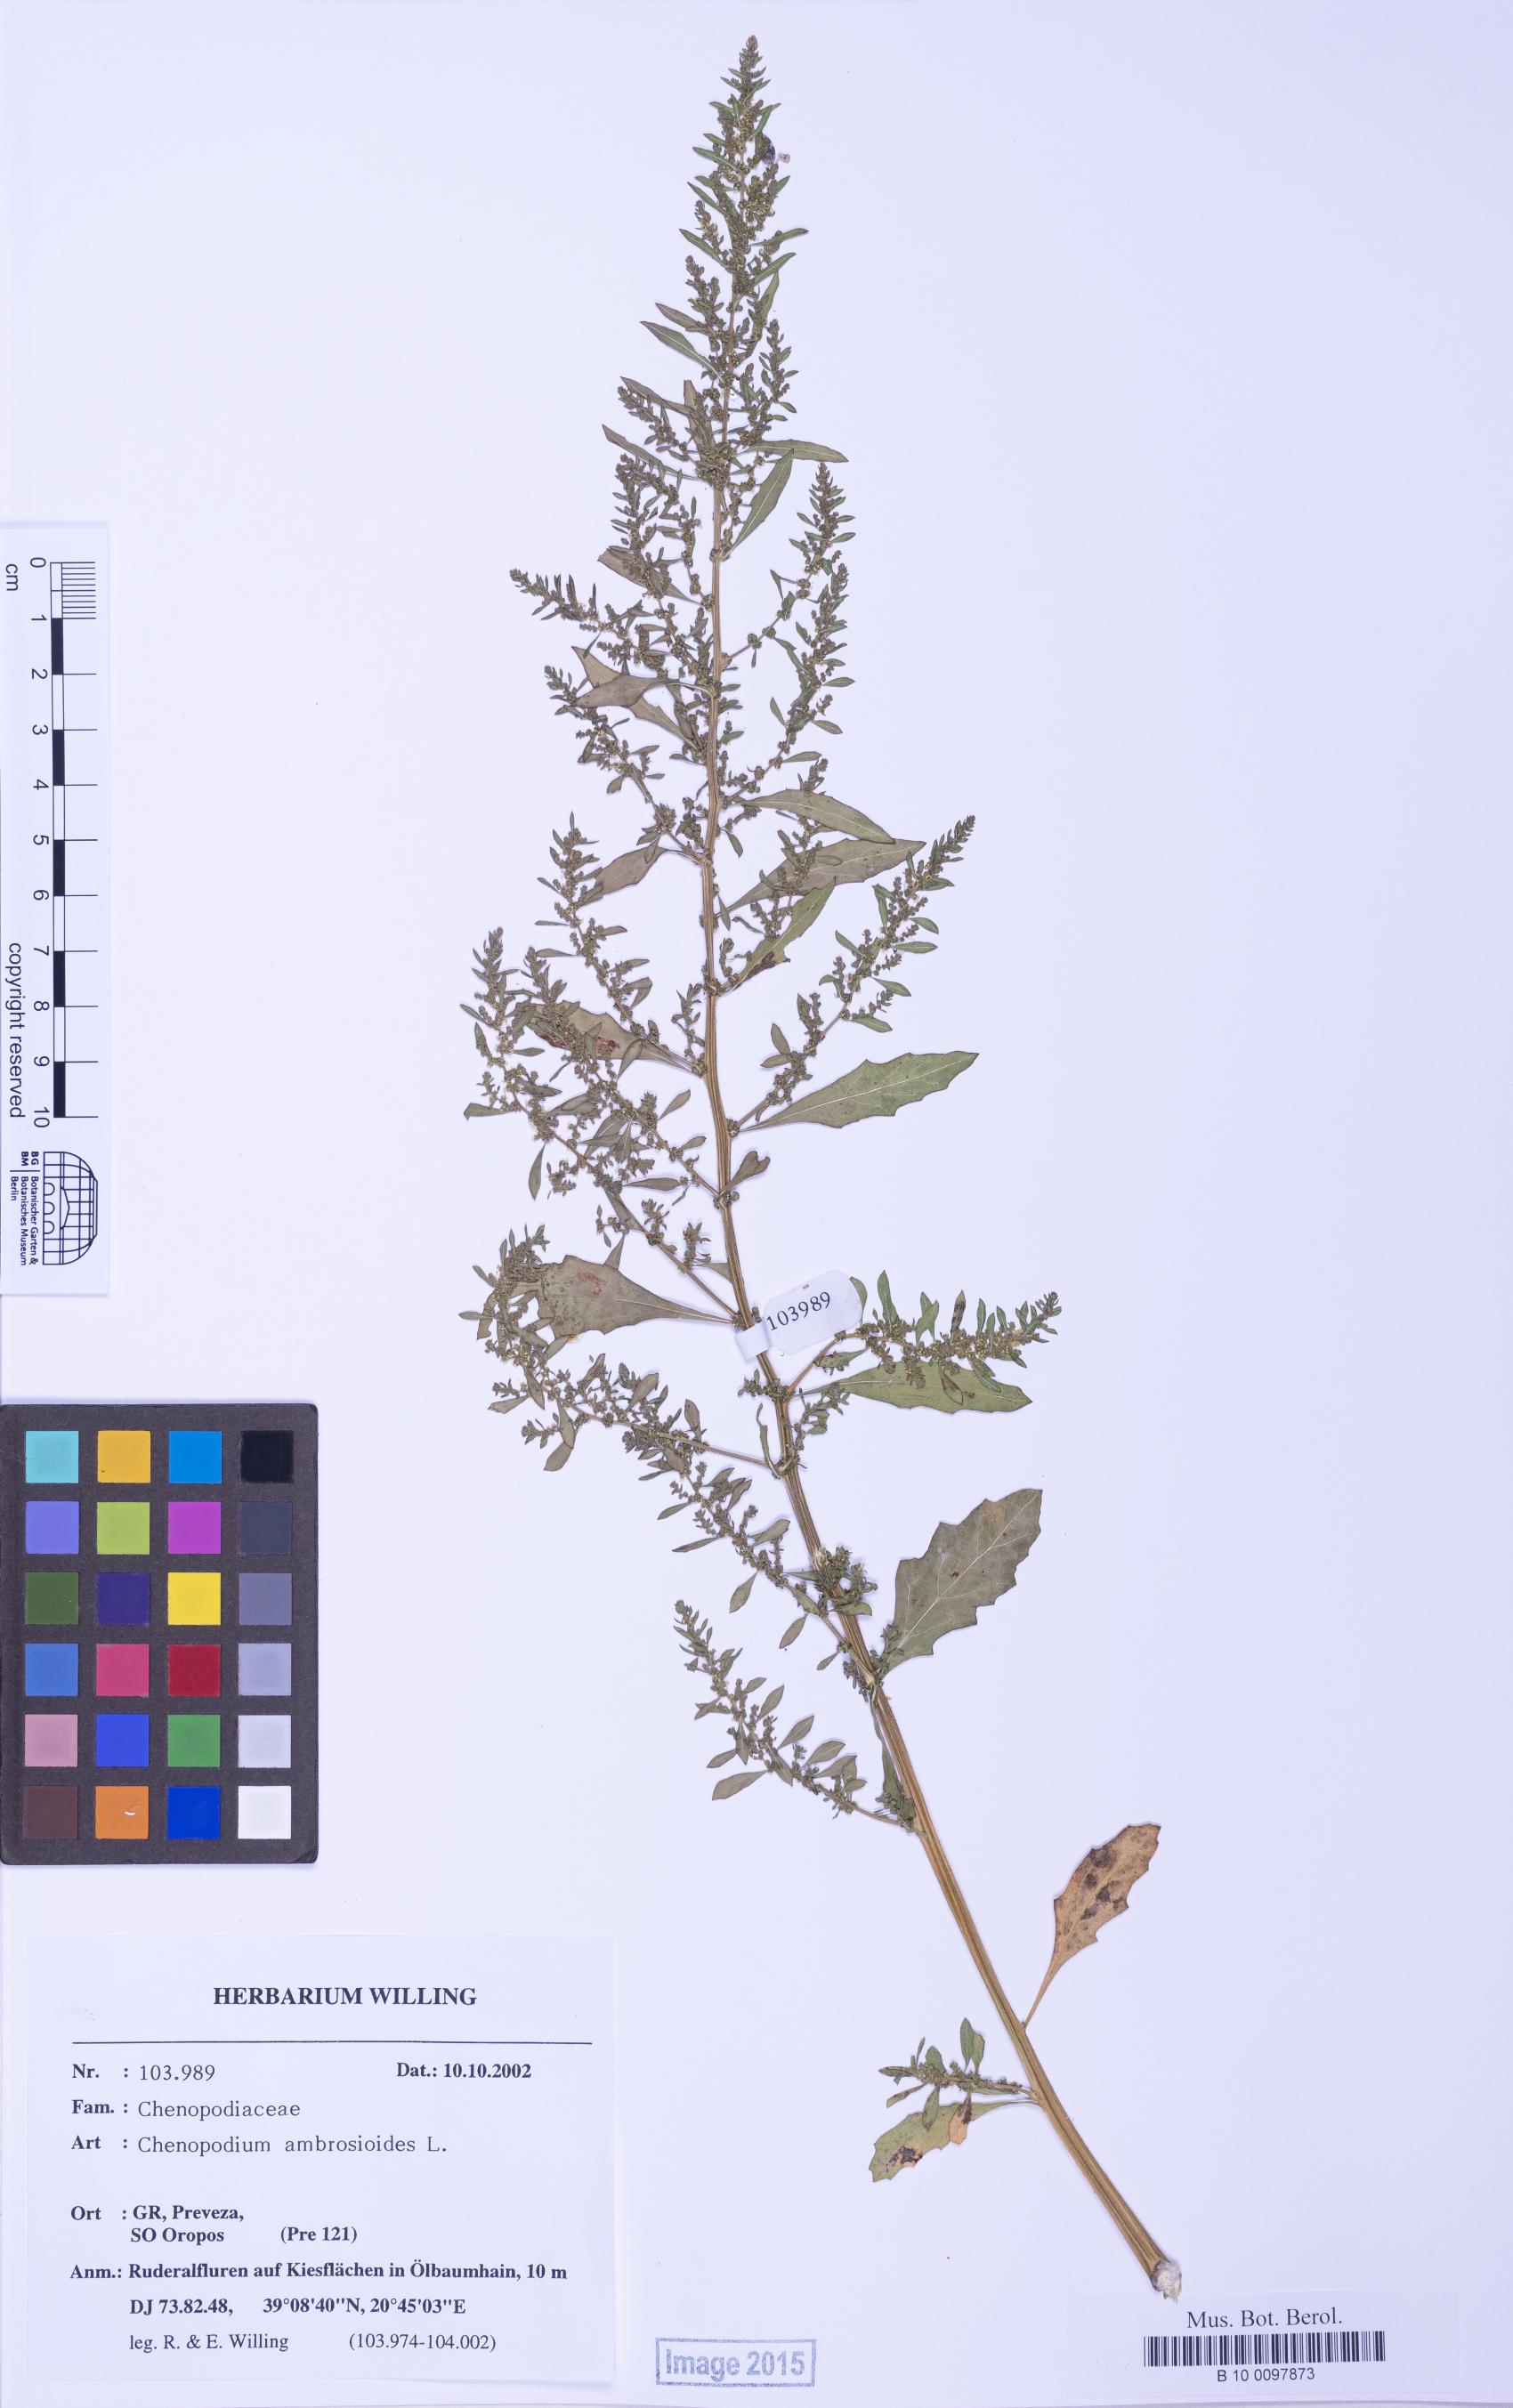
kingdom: Plantae
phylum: Tracheophyta
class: Magnoliopsida
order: Caryophyllales
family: Amaranthaceae
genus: Dysphania
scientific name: Dysphania ambrosioides
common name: Wormseed
